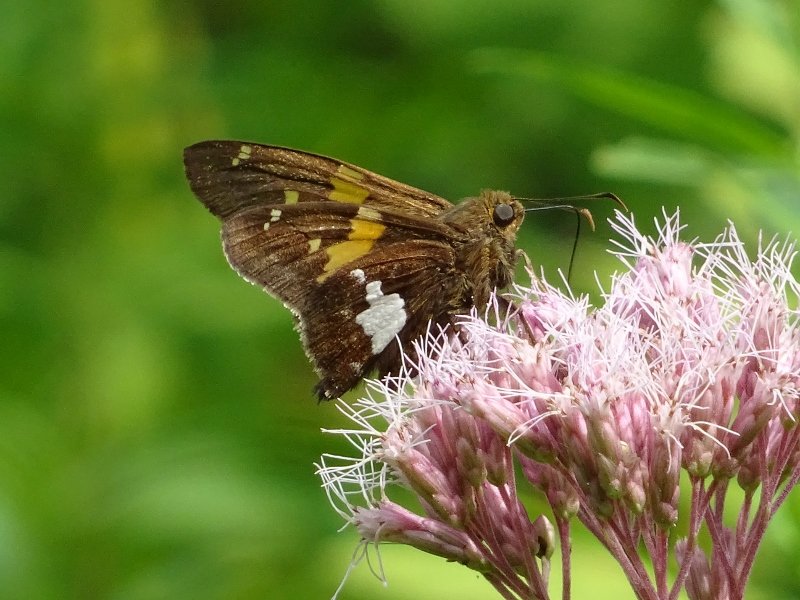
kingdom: Animalia
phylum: Arthropoda
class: Insecta
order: Lepidoptera
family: Hesperiidae
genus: Epargyreus
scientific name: Epargyreus clarus
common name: Silver-spotted Skipper
